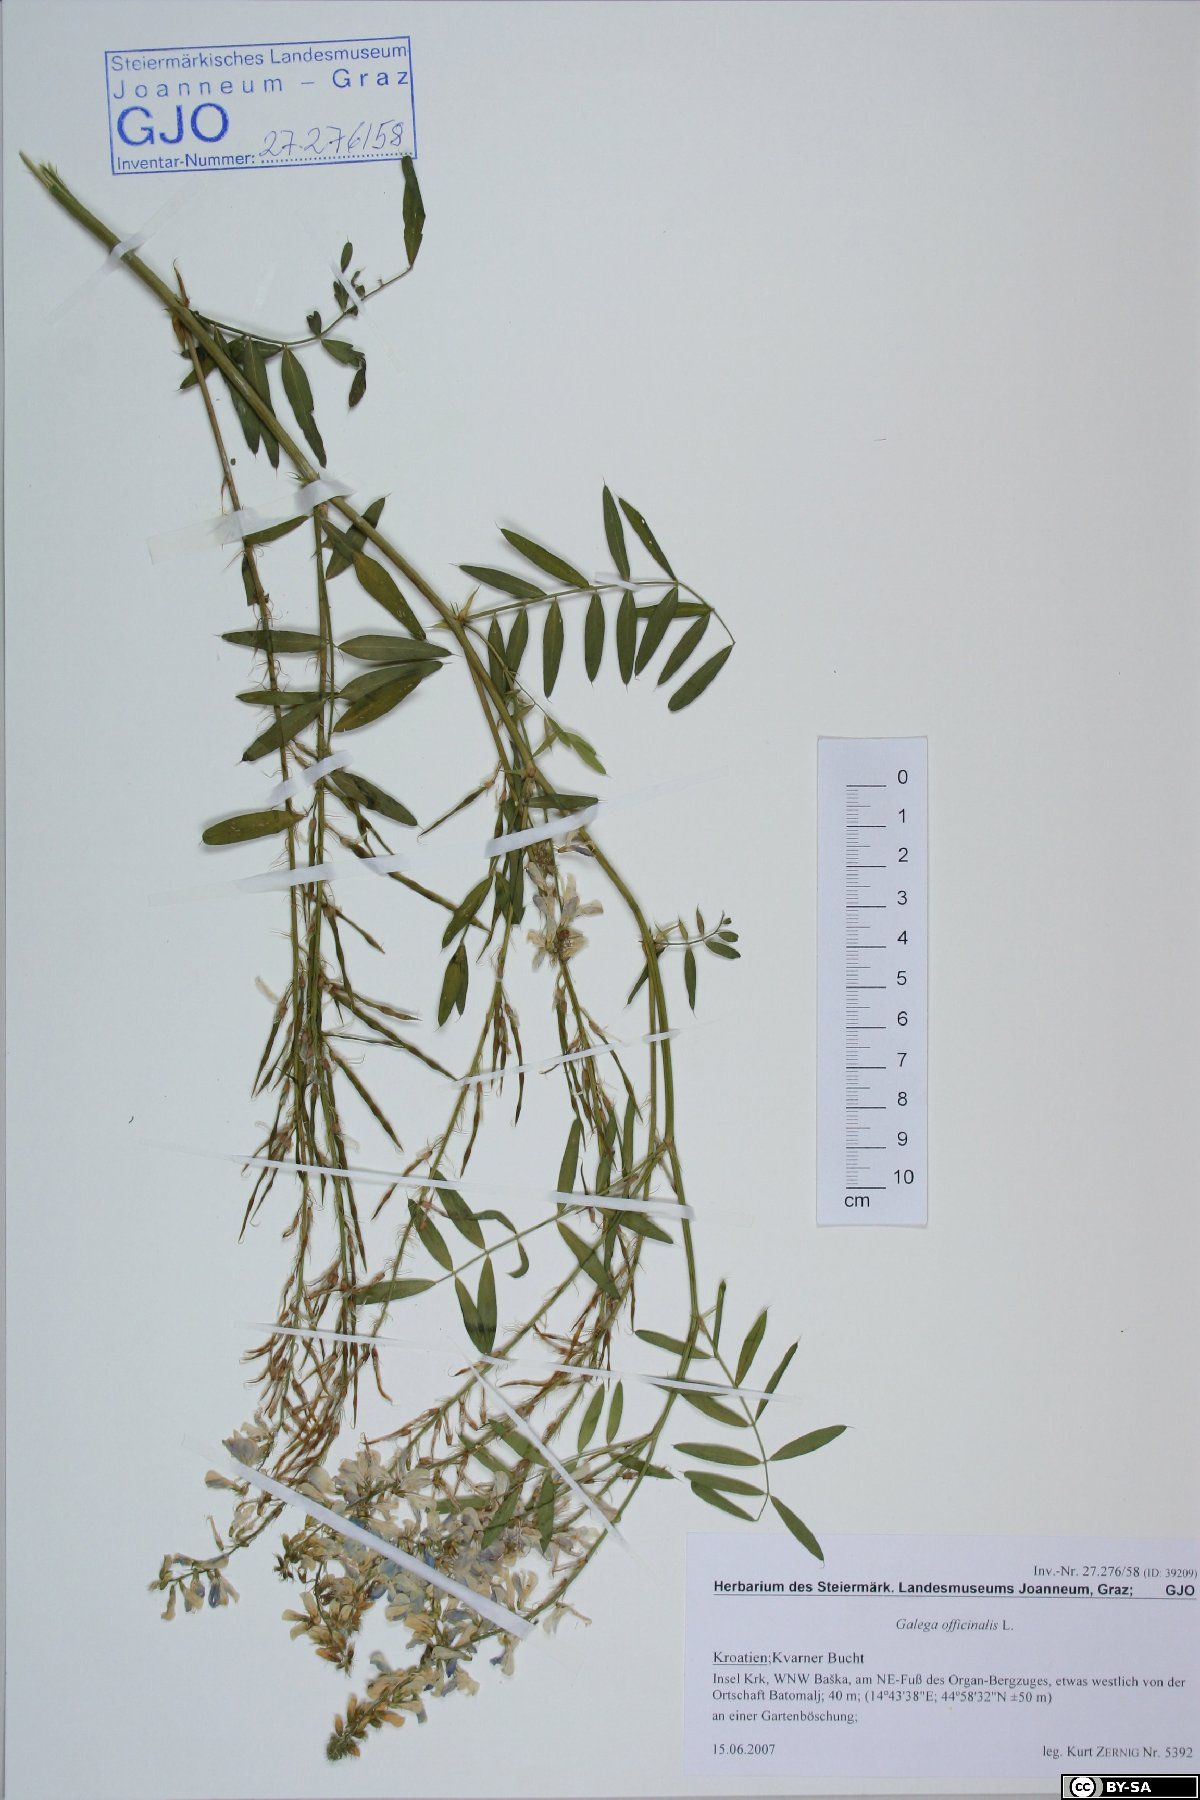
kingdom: Plantae
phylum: Tracheophyta
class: Magnoliopsida
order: Fabales
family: Fabaceae
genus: Galega
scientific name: Galega officinalis
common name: Goat's-rue
